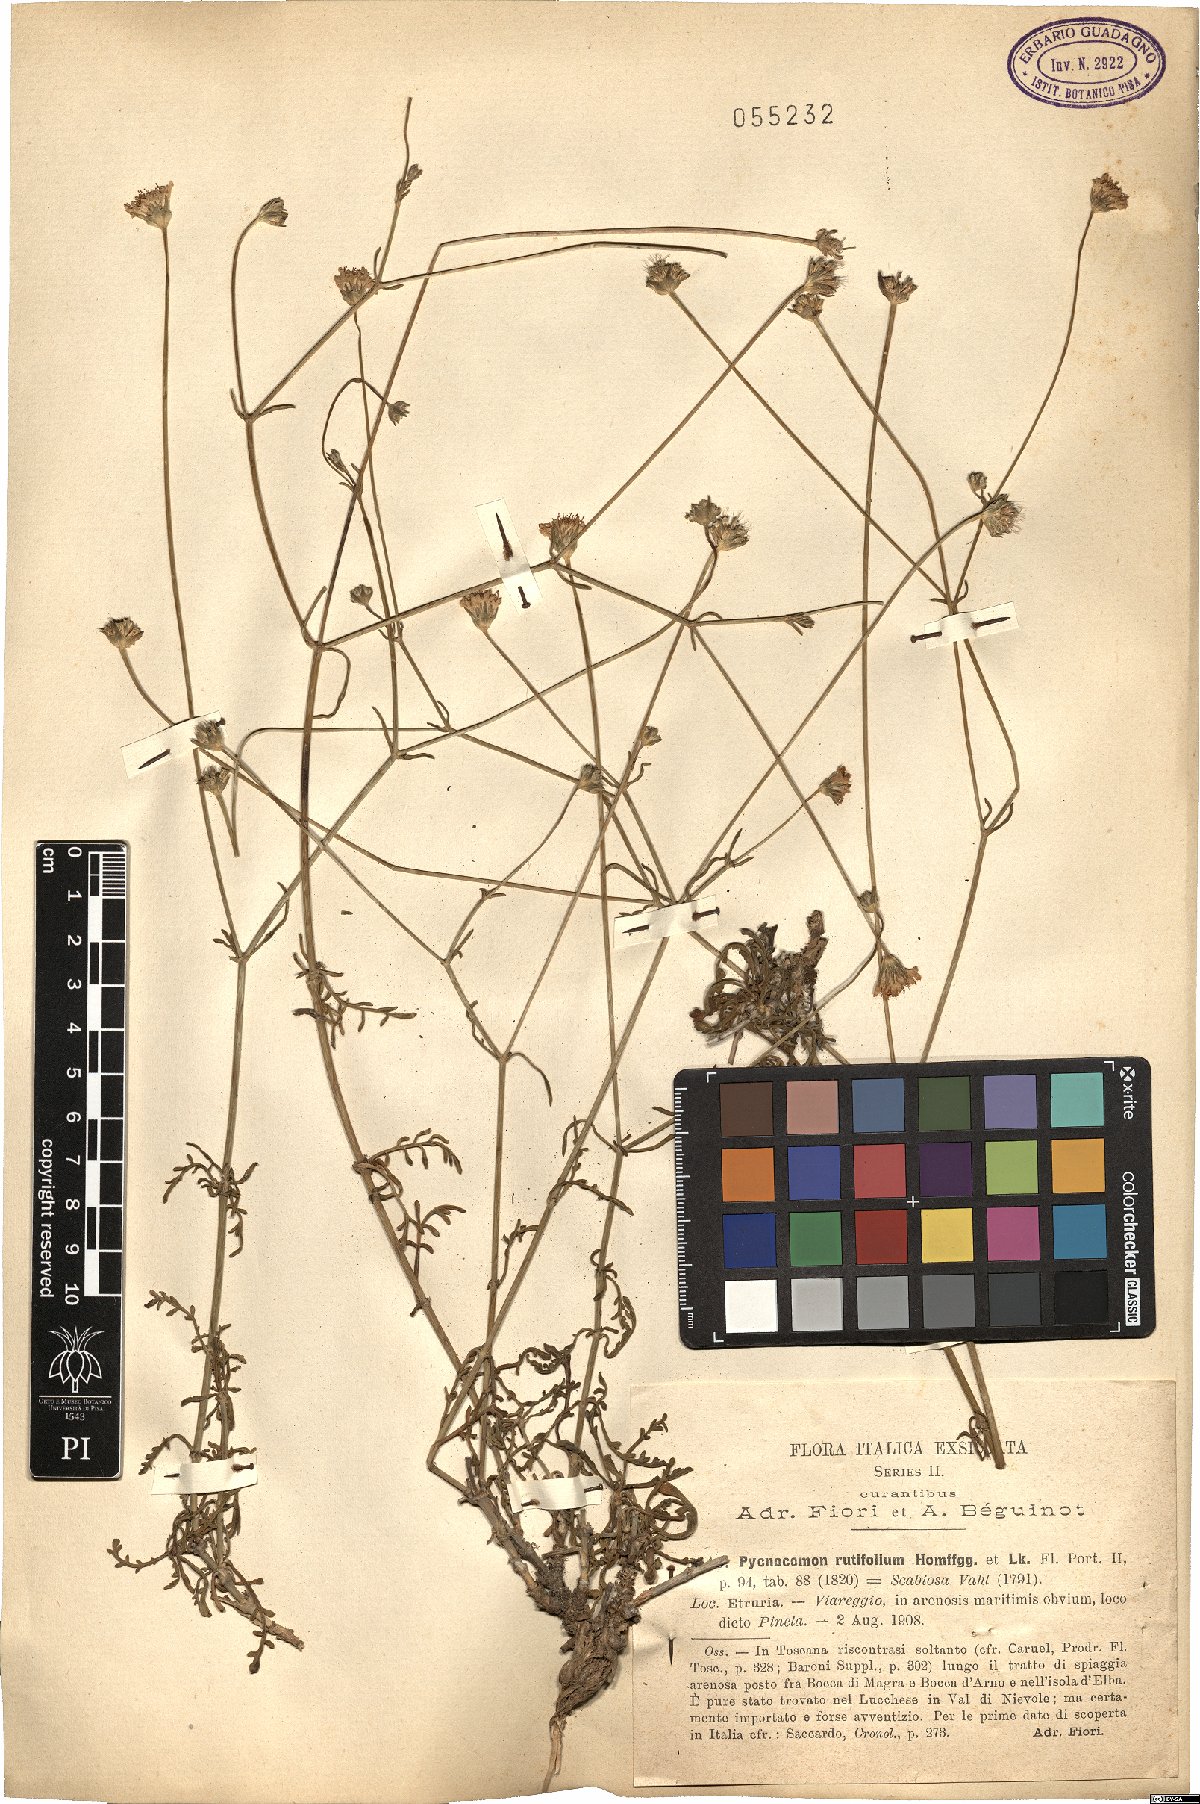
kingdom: Plantae
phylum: Tracheophyta
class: Magnoliopsida
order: Dipsacales
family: Caprifoliaceae
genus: Pycnocomon
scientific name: Pycnocomon rutifolium
